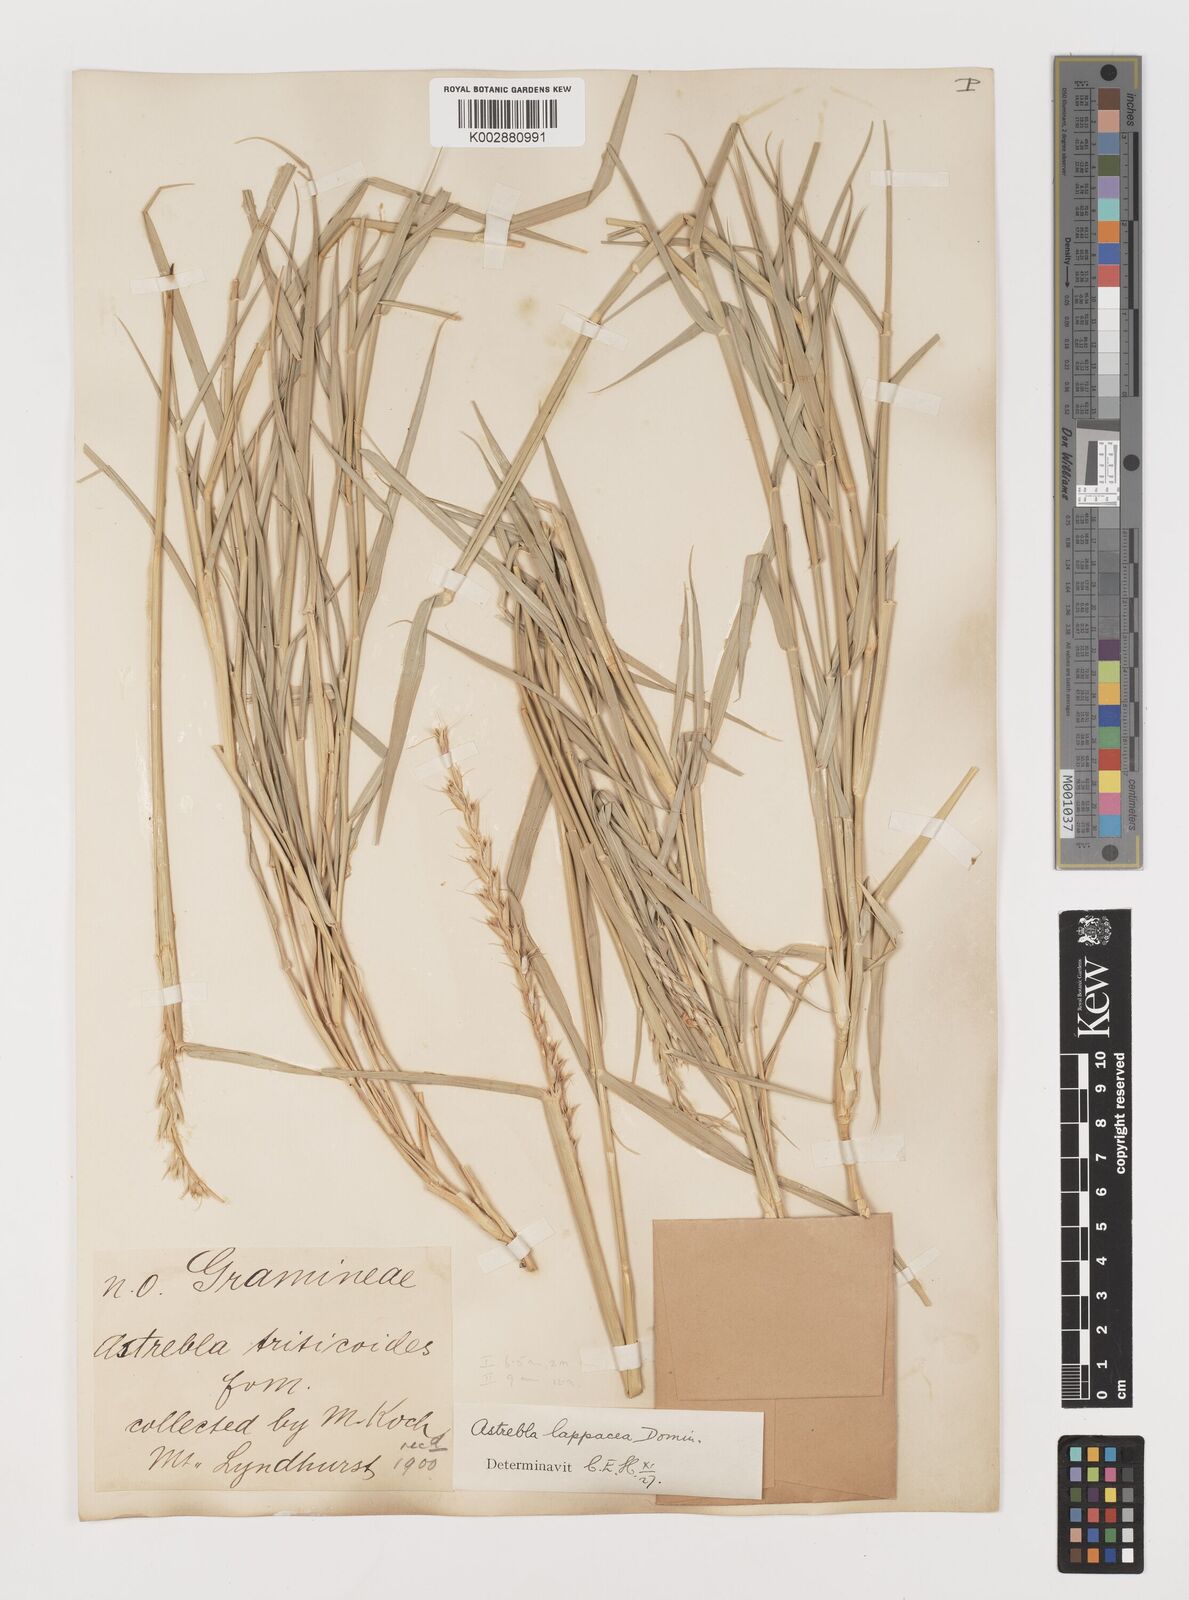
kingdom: Plantae
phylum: Tracheophyta
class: Liliopsida
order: Poales
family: Poaceae
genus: Astrebla
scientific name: Astrebla lappacea
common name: Curly mitchell grass
